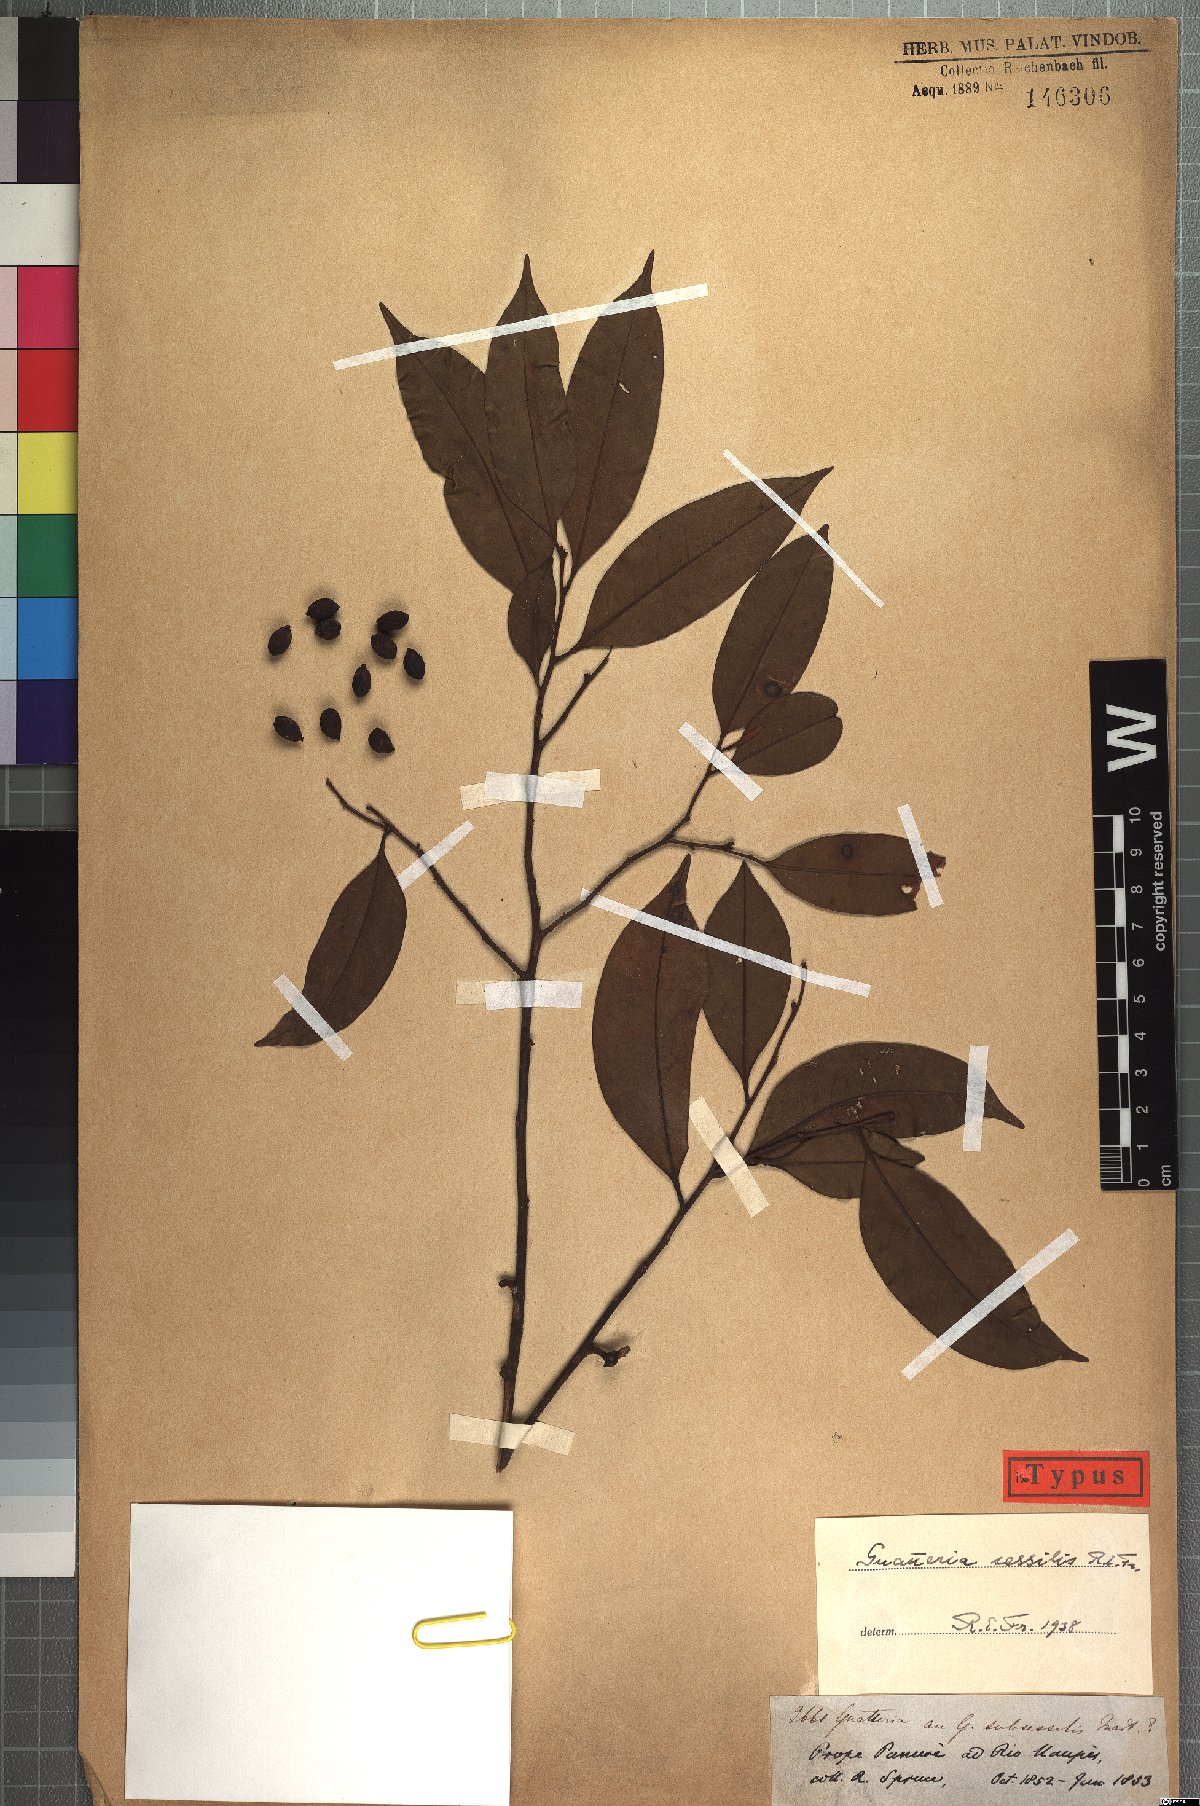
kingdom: Plantae
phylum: Tracheophyta
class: Magnoliopsida
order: Magnoliales
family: Annonaceae
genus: Guatteria
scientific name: Guatteria schomburgkiana
